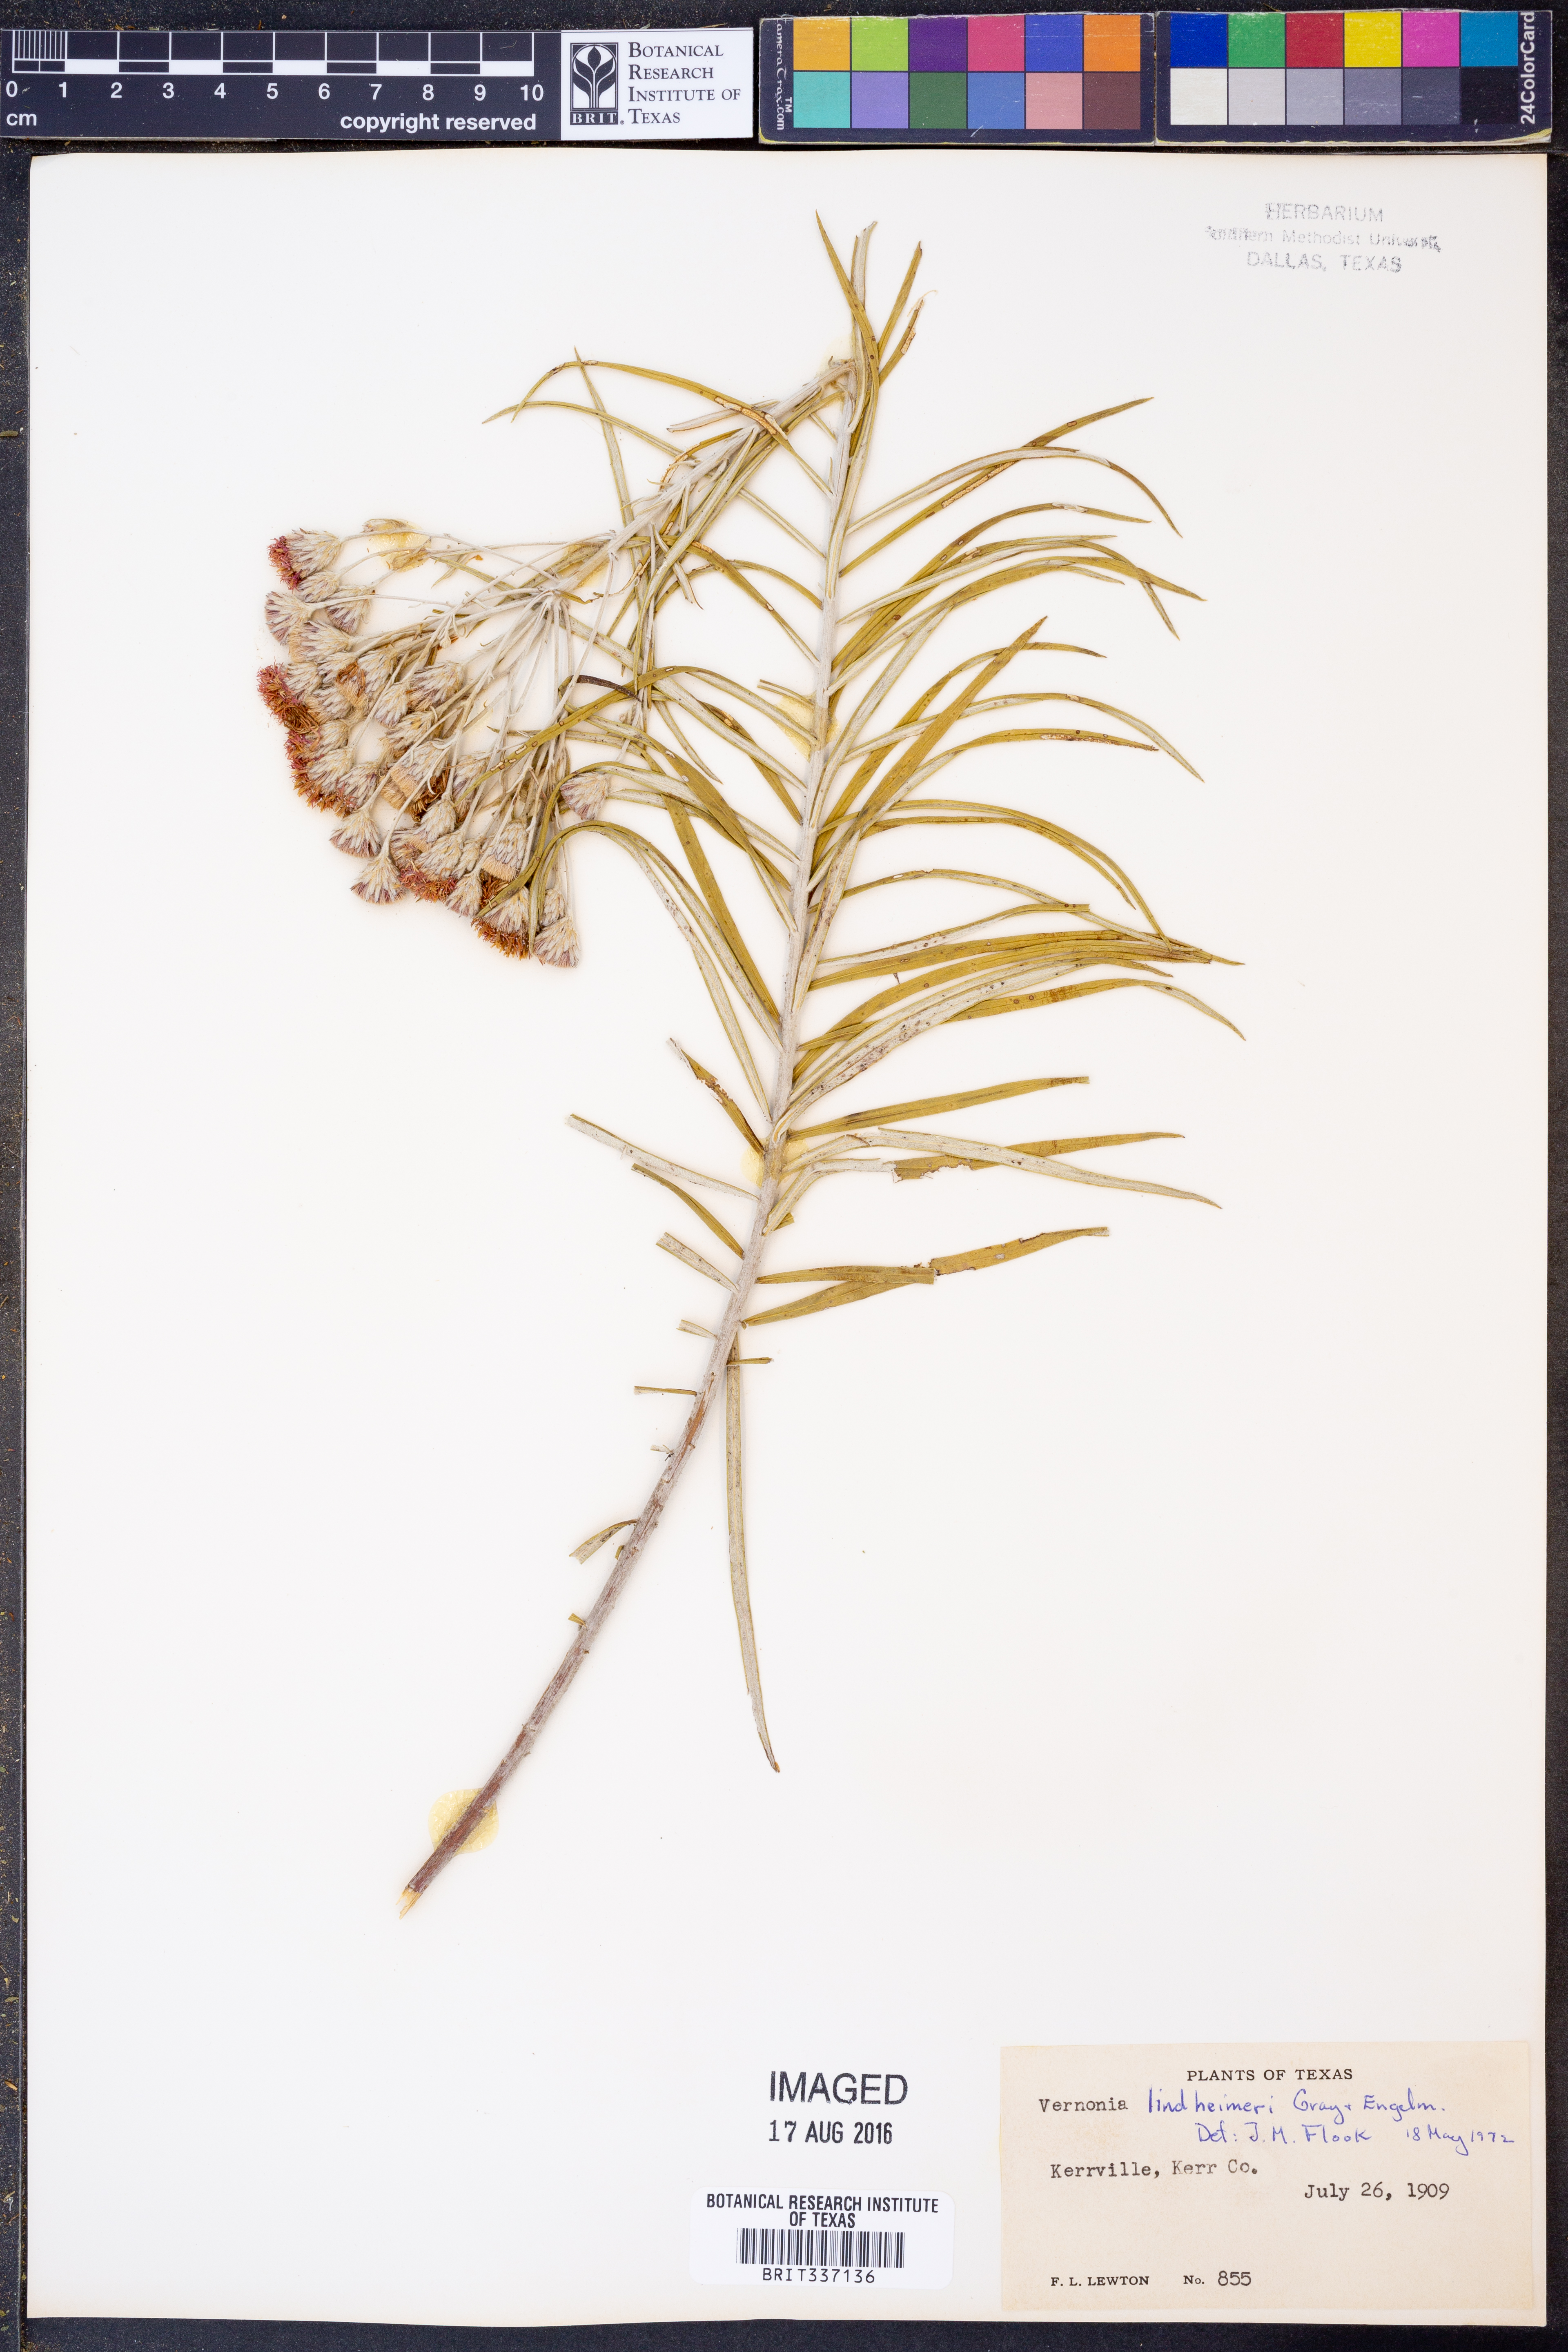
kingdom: Plantae
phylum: Tracheophyta
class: Magnoliopsida
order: Asterales
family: Asteraceae
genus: Vernonia
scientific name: Vernonia lindheimeri
